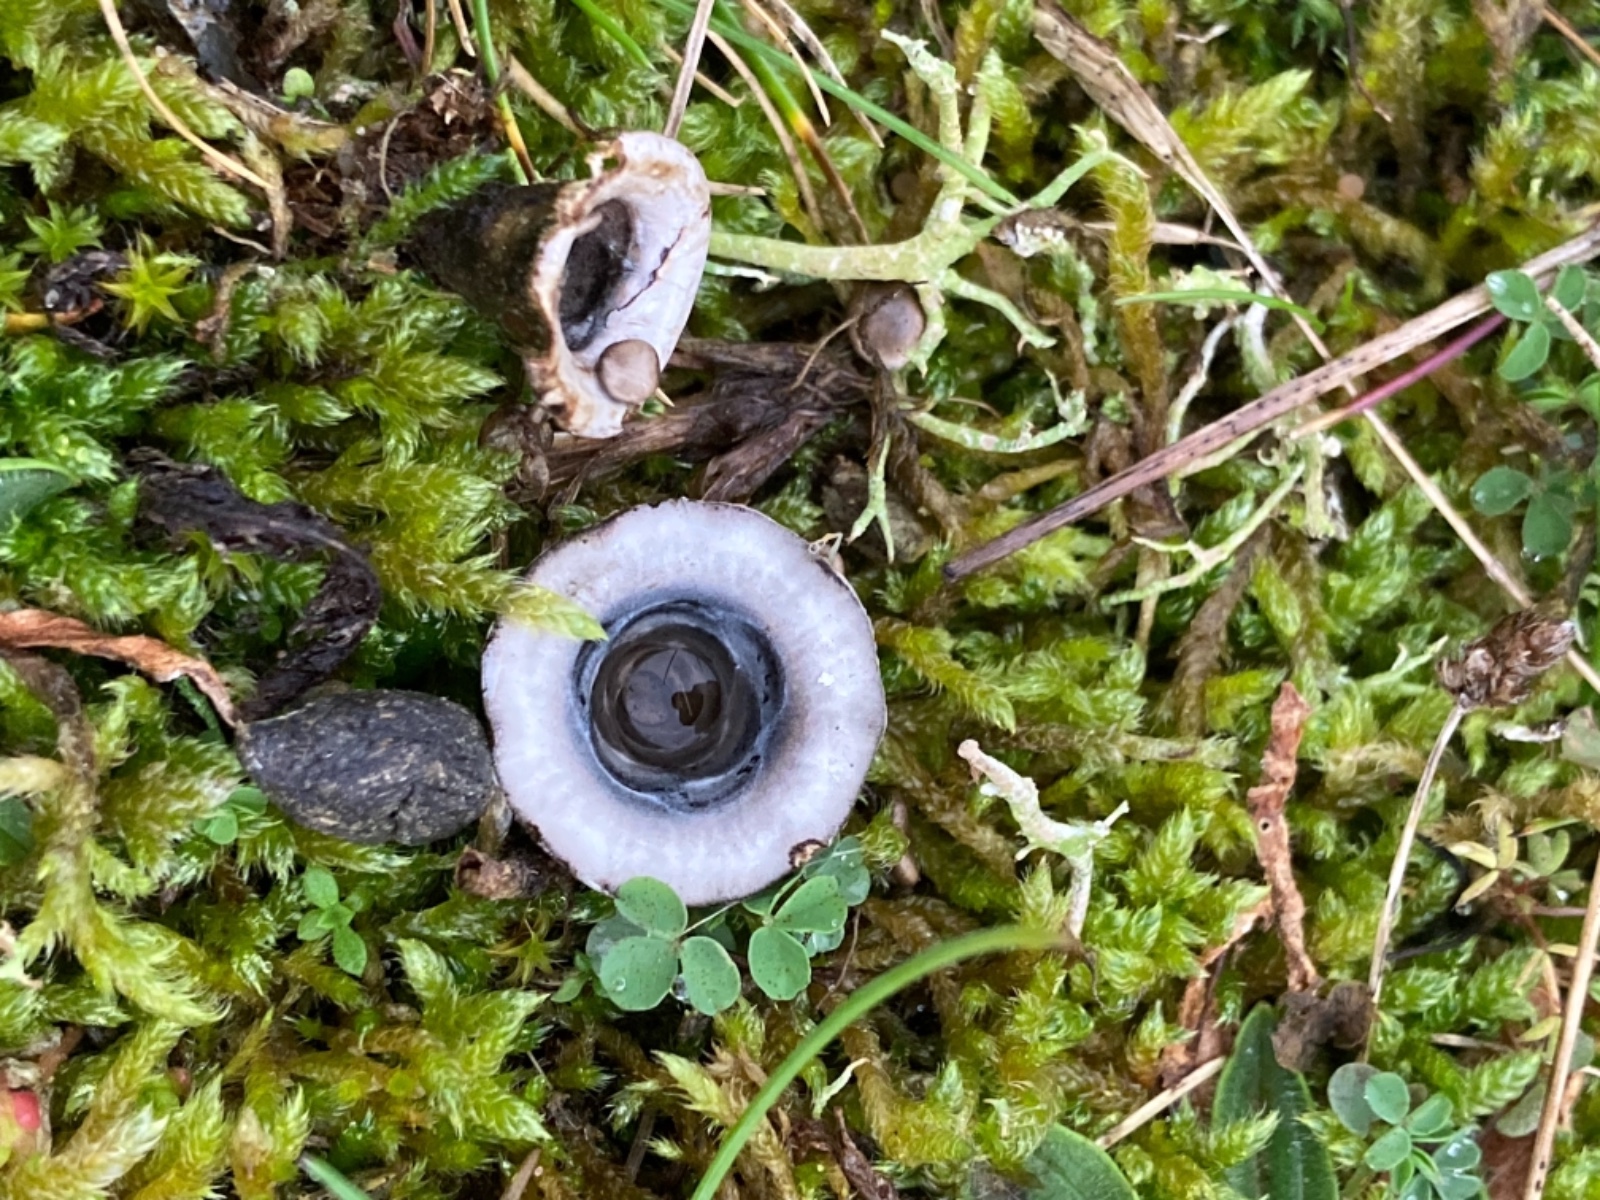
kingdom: Fungi
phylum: Basidiomycota
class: Agaricomycetes
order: Agaricales
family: Agaricaceae
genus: Cyathus
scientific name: Cyathus olla
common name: klokke-redesvamp
